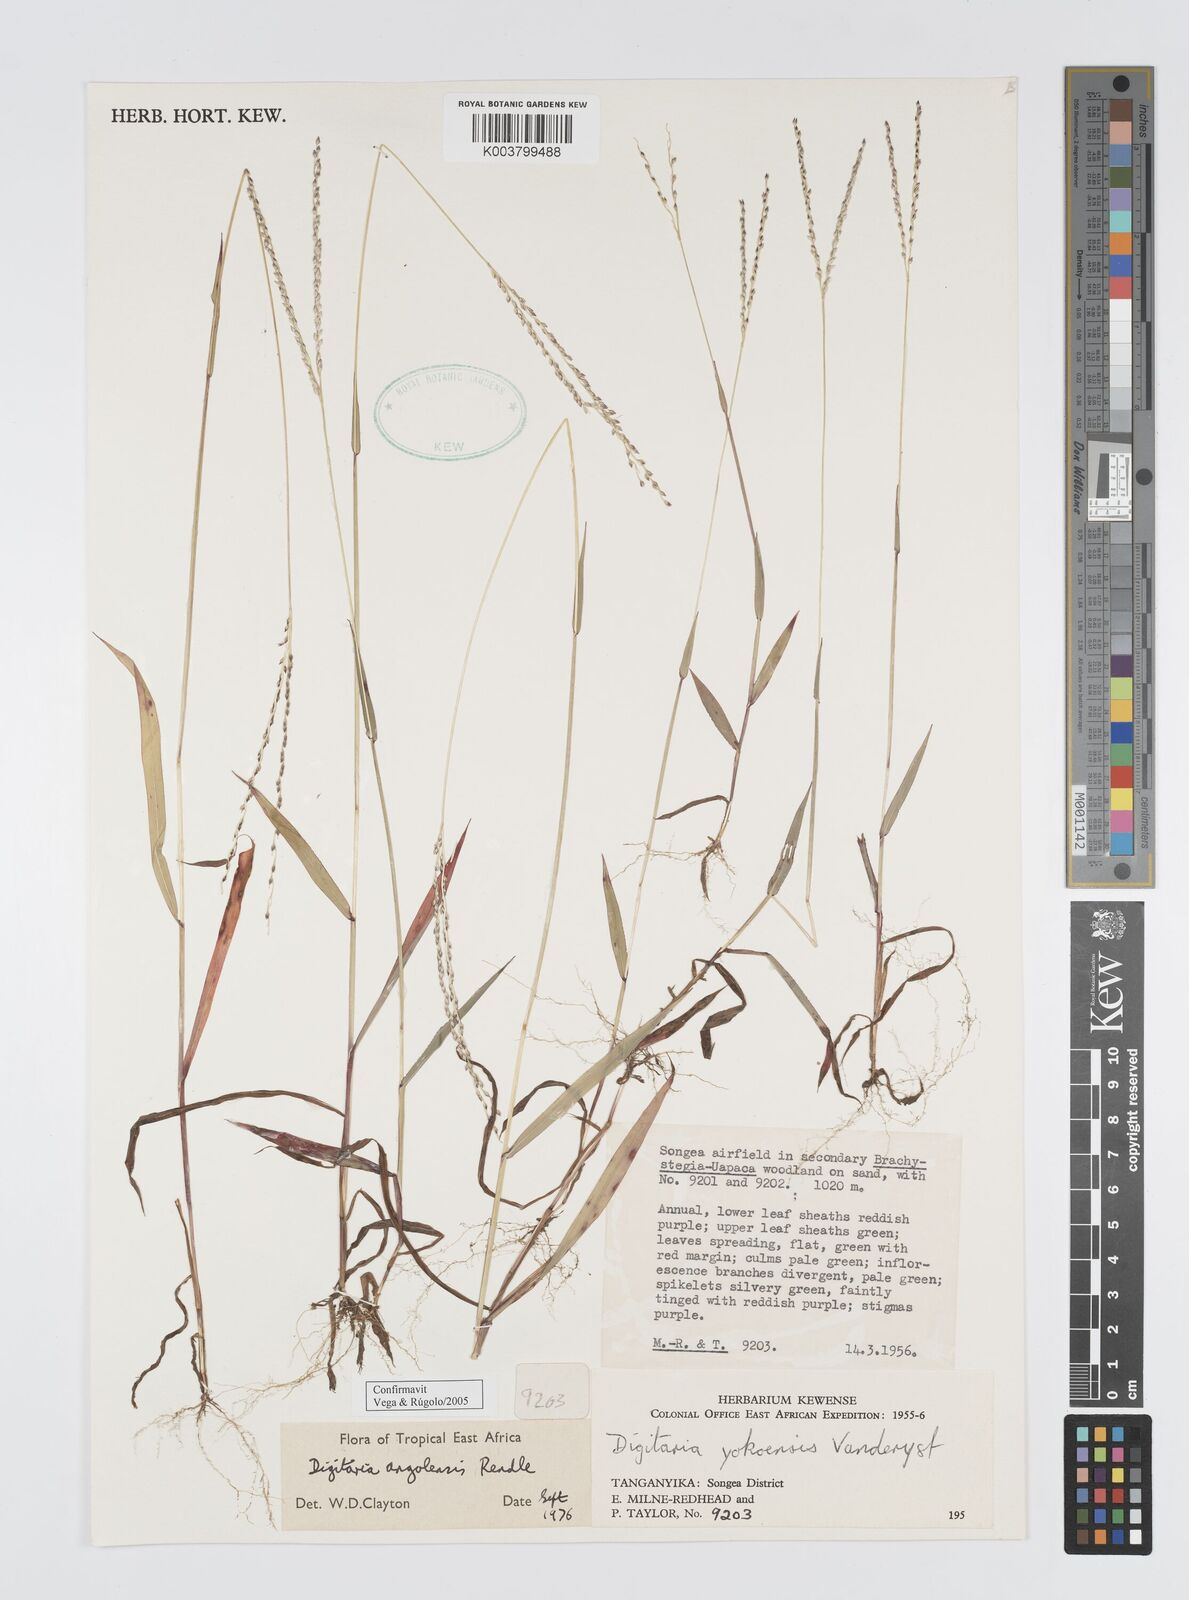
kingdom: Plantae
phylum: Tracheophyta
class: Liliopsida
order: Poales
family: Poaceae
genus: Digitaria
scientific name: Digitaria angolensis
